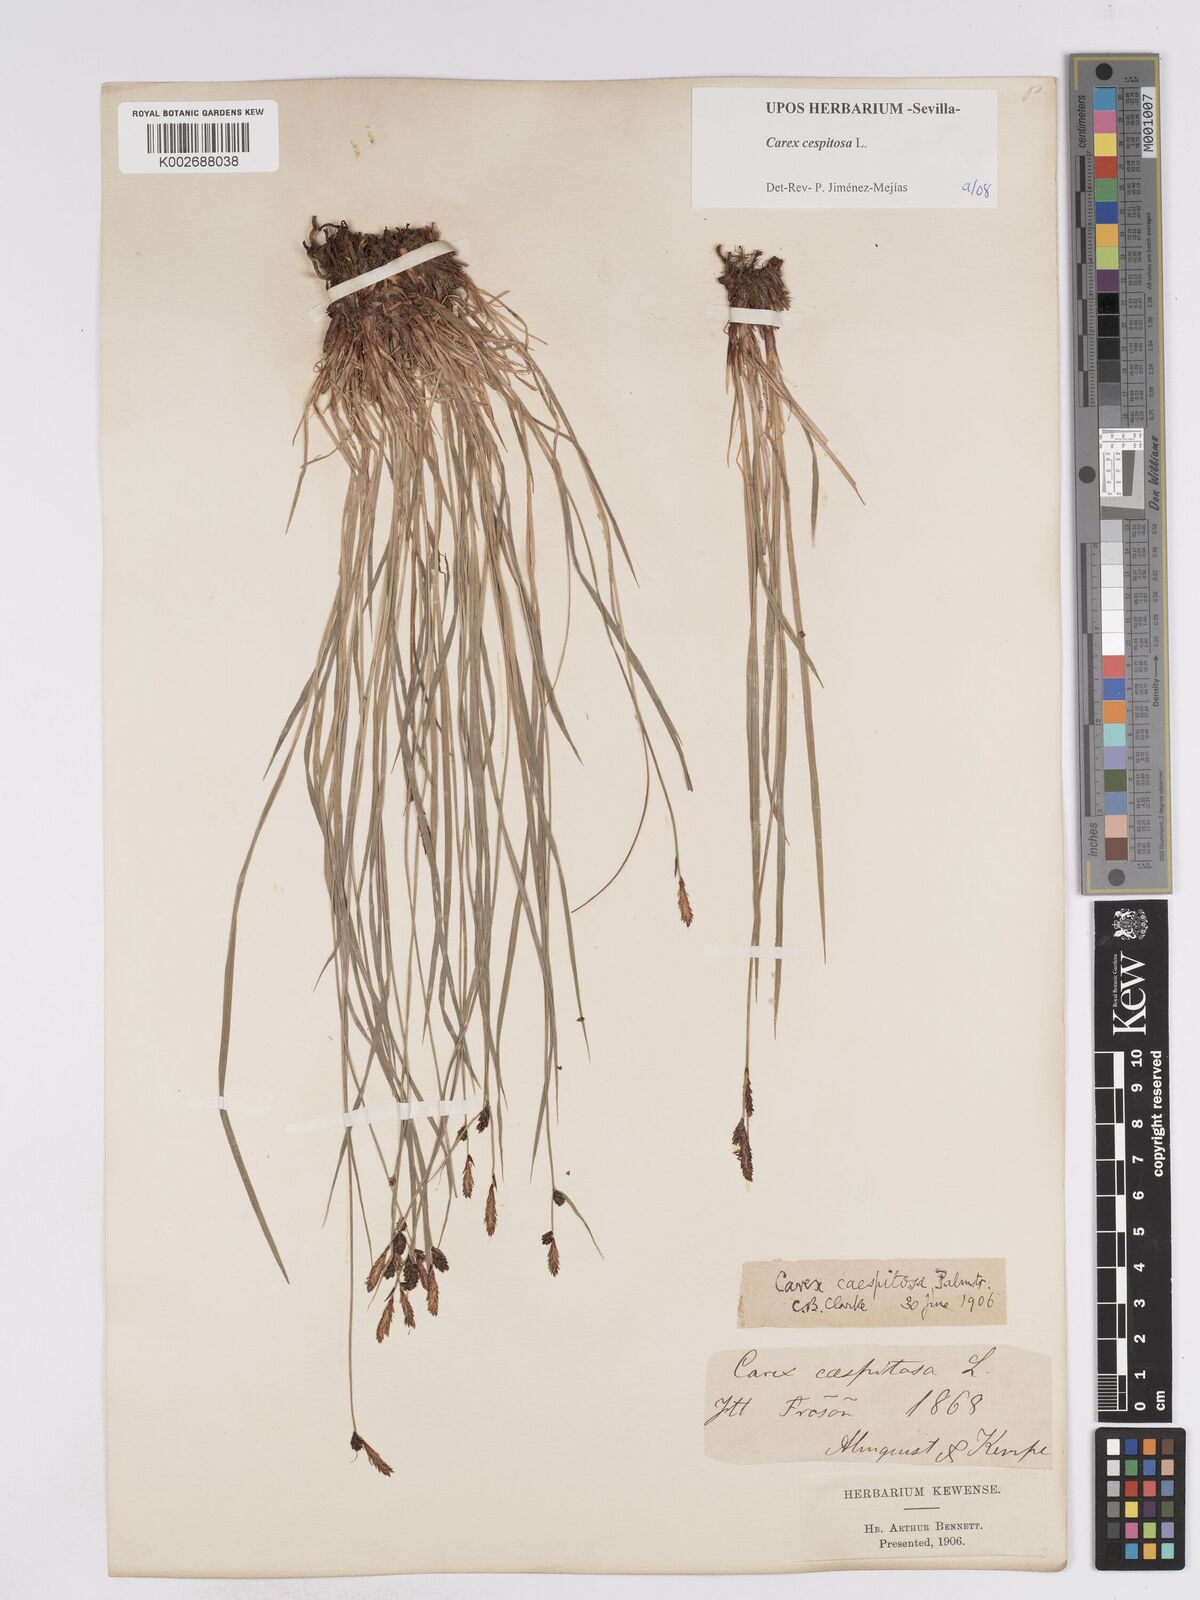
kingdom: Plantae
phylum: Tracheophyta
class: Liliopsida
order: Poales
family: Cyperaceae
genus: Carex
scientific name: Carex
